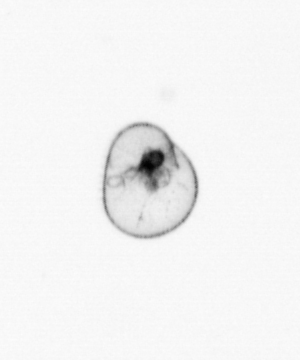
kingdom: Chromista
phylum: Myzozoa
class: Dinophyceae
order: Noctilucales
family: Noctilucaceae
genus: Noctiluca
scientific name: Noctiluca scintillans
